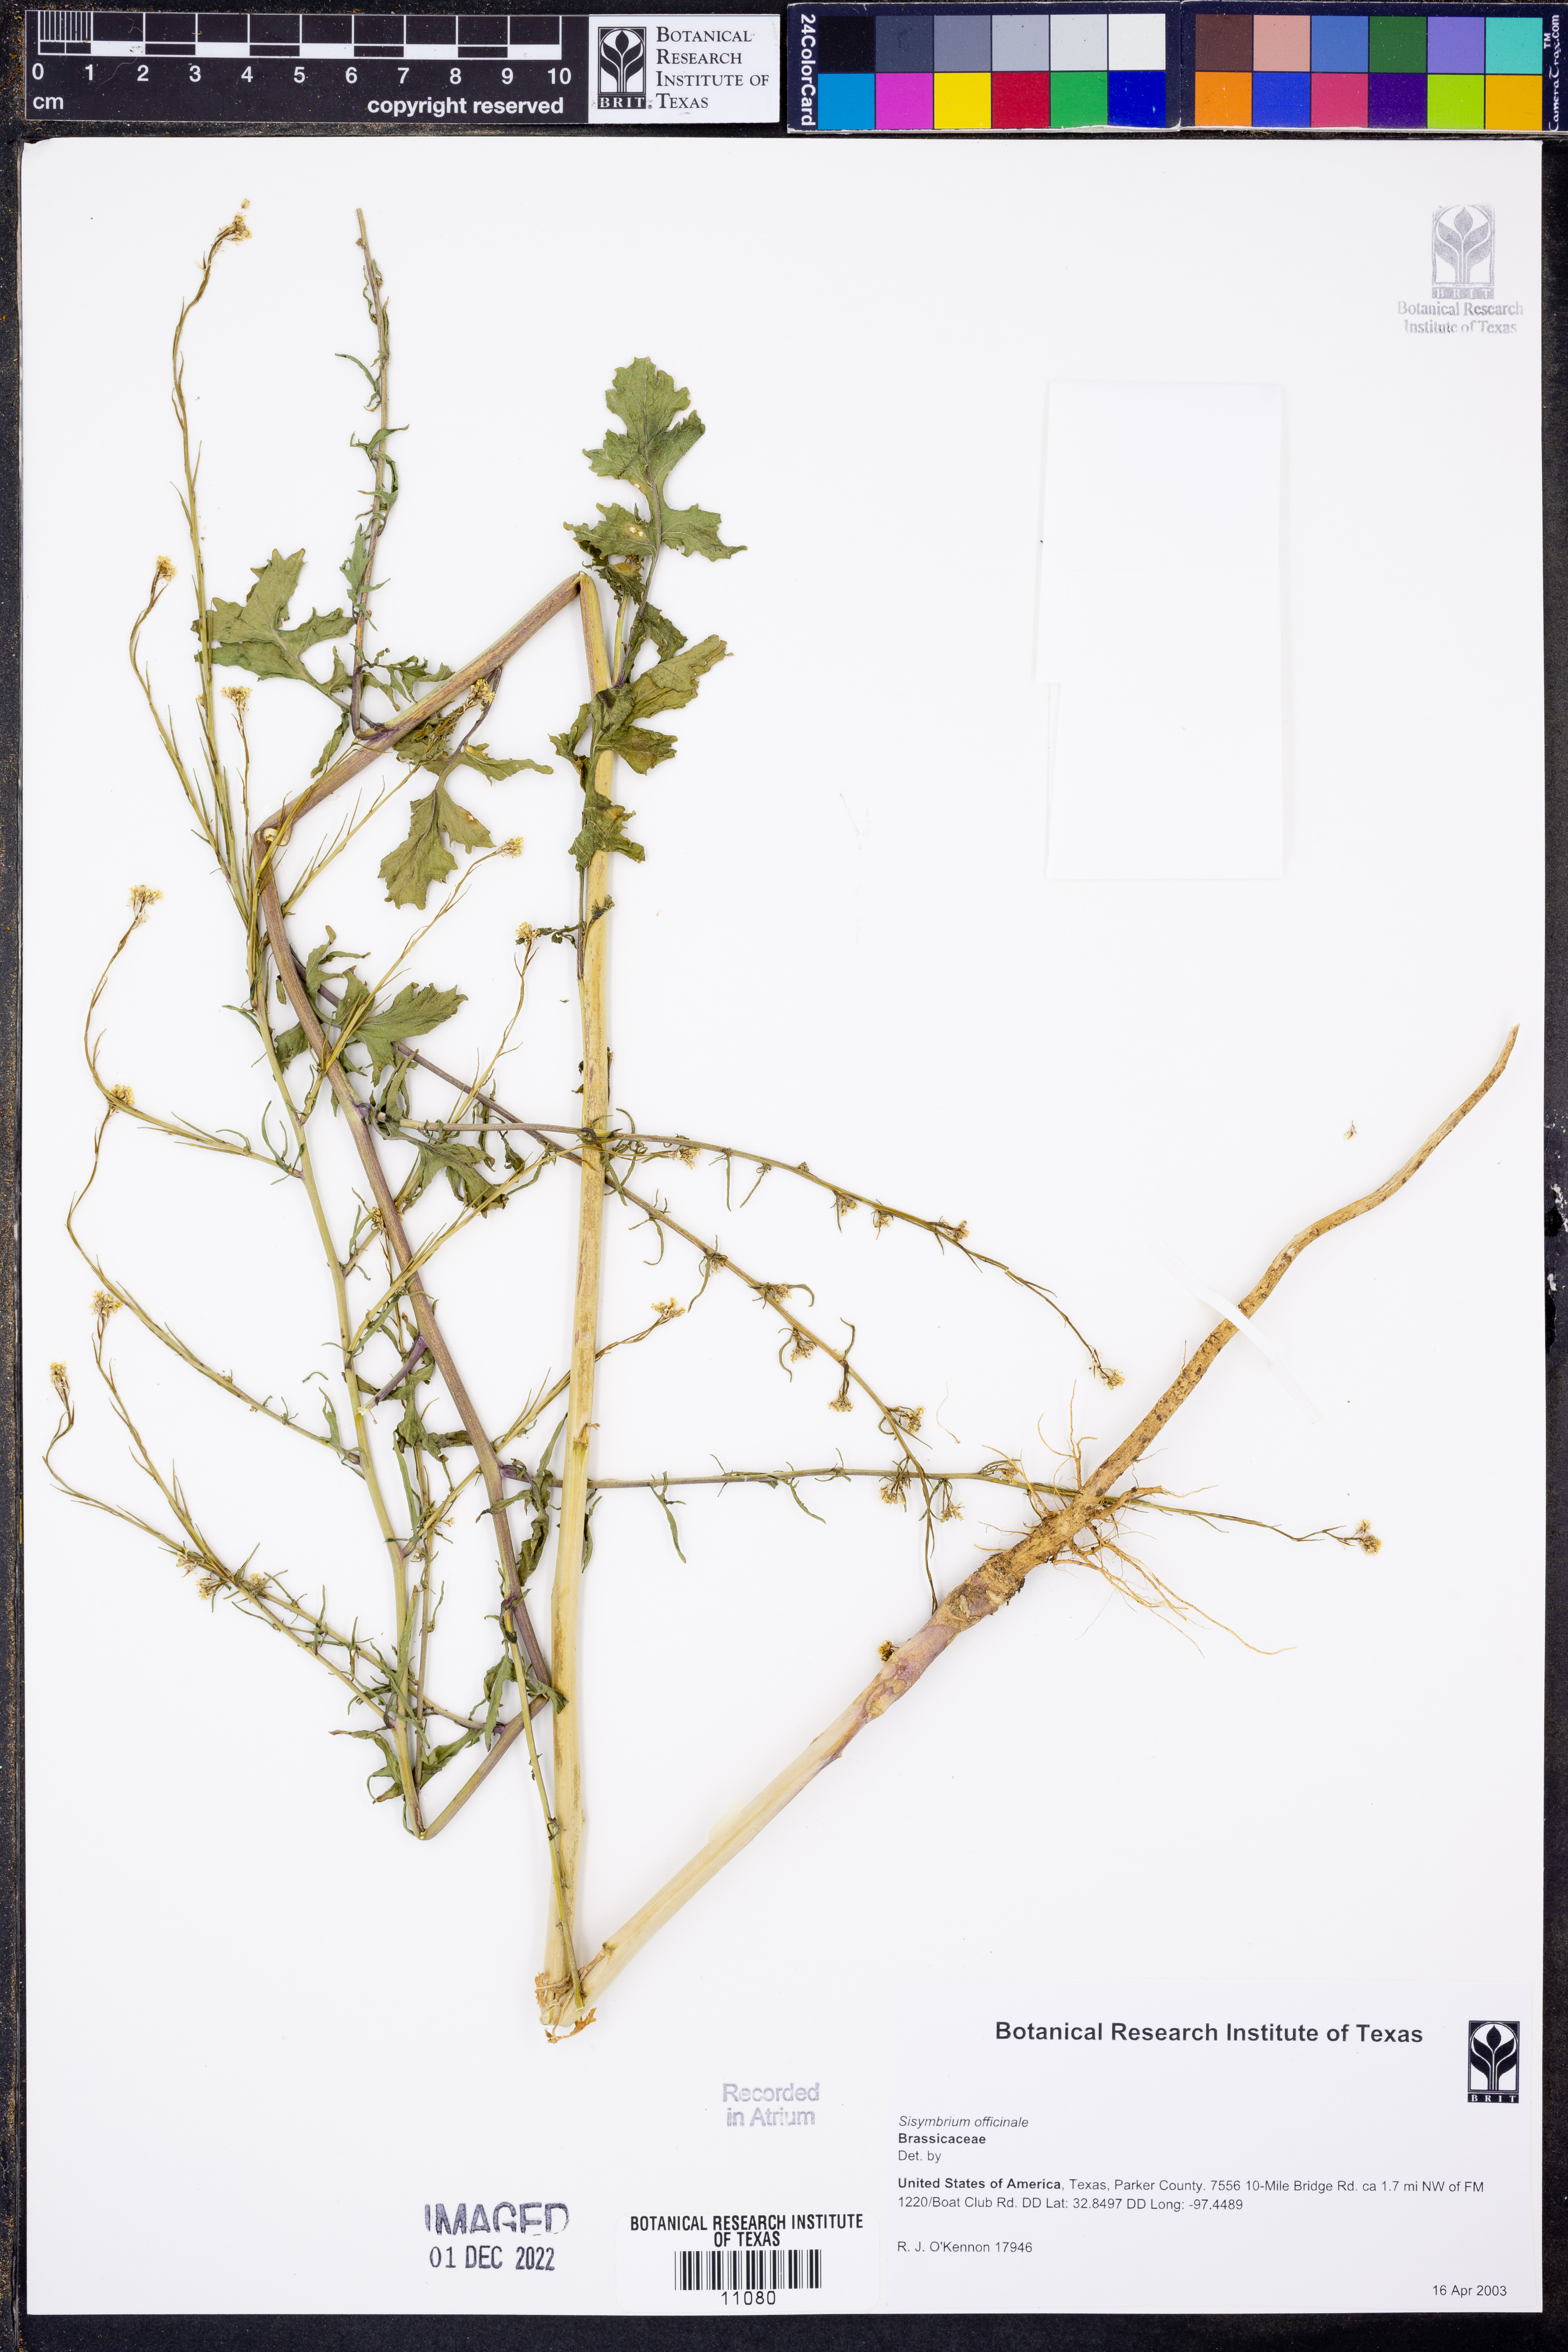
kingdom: Plantae
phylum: Tracheophyta
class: Magnoliopsida
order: Brassicales
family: Brassicaceae
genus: Sisymbrium
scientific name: Sisymbrium officinale
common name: Hedge mustard
